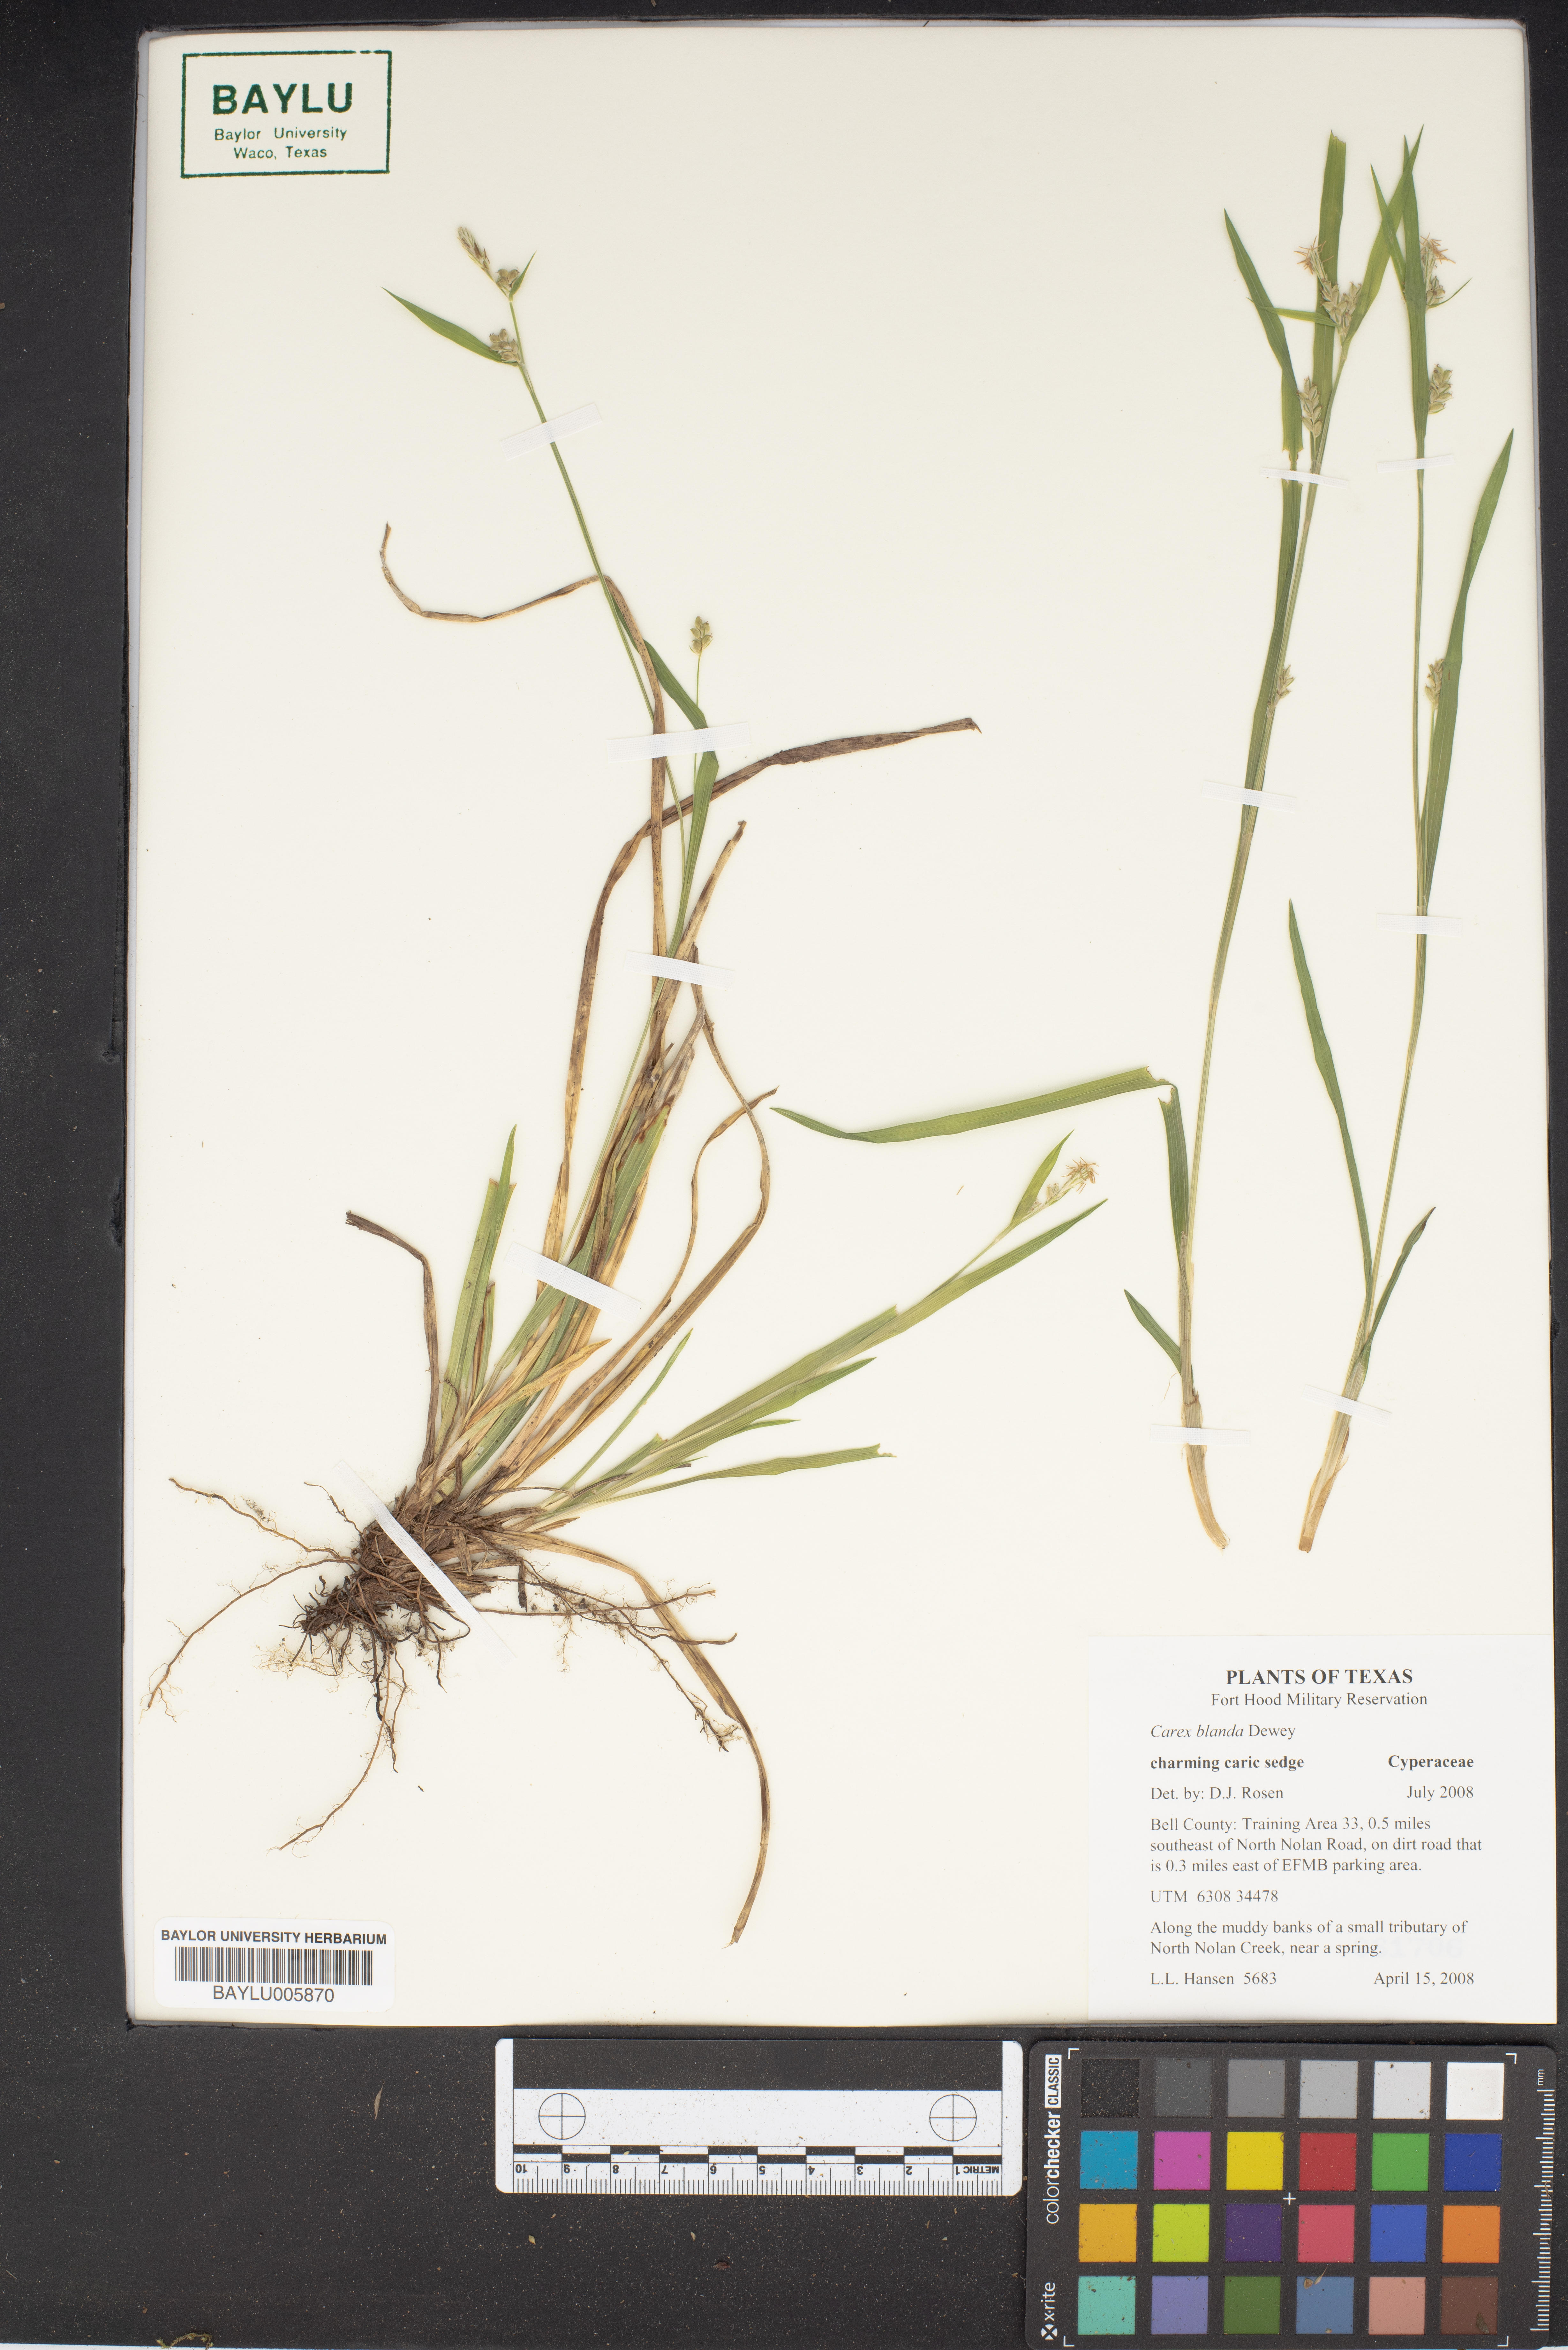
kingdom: Plantae
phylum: Tracheophyta
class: Liliopsida
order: Poales
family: Cyperaceae
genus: Carex
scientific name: Carex blanda
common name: Bland sedge
